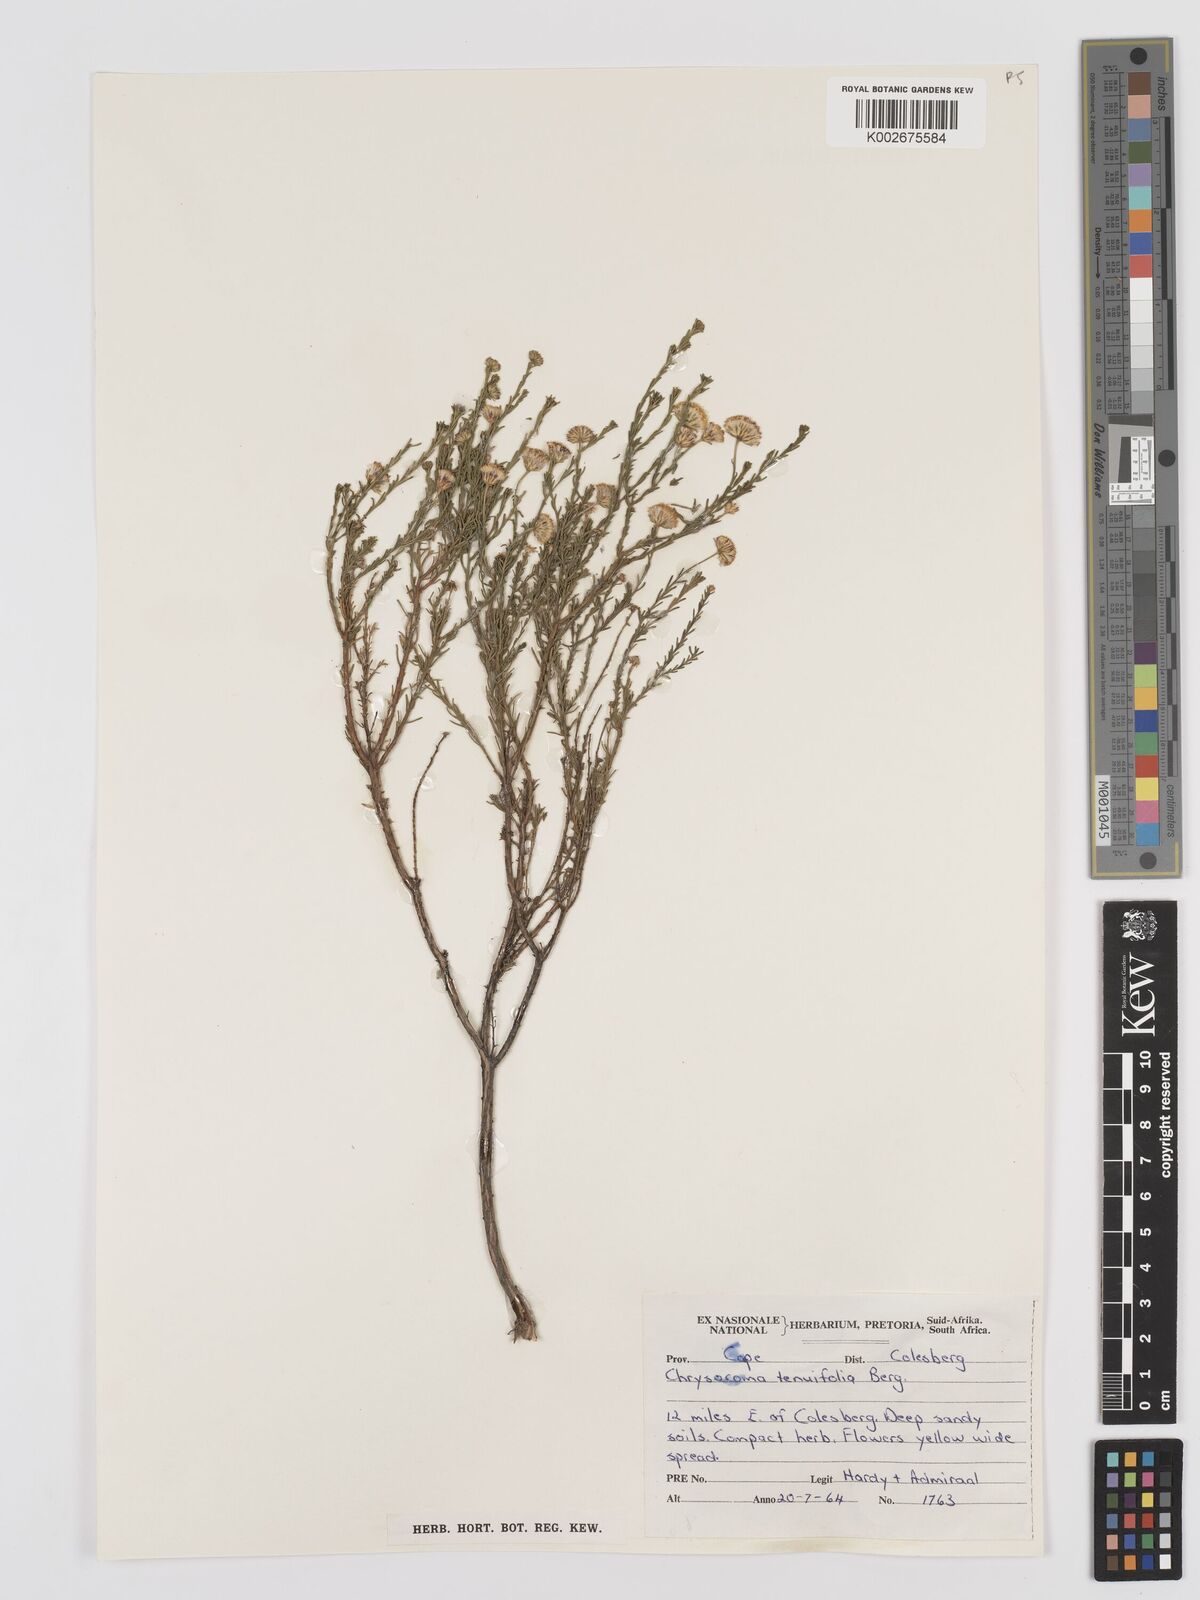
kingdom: Plantae
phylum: Tracheophyta
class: Magnoliopsida
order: Asterales
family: Asteraceae
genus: Chrysocoma
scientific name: Chrysocoma ciliata
